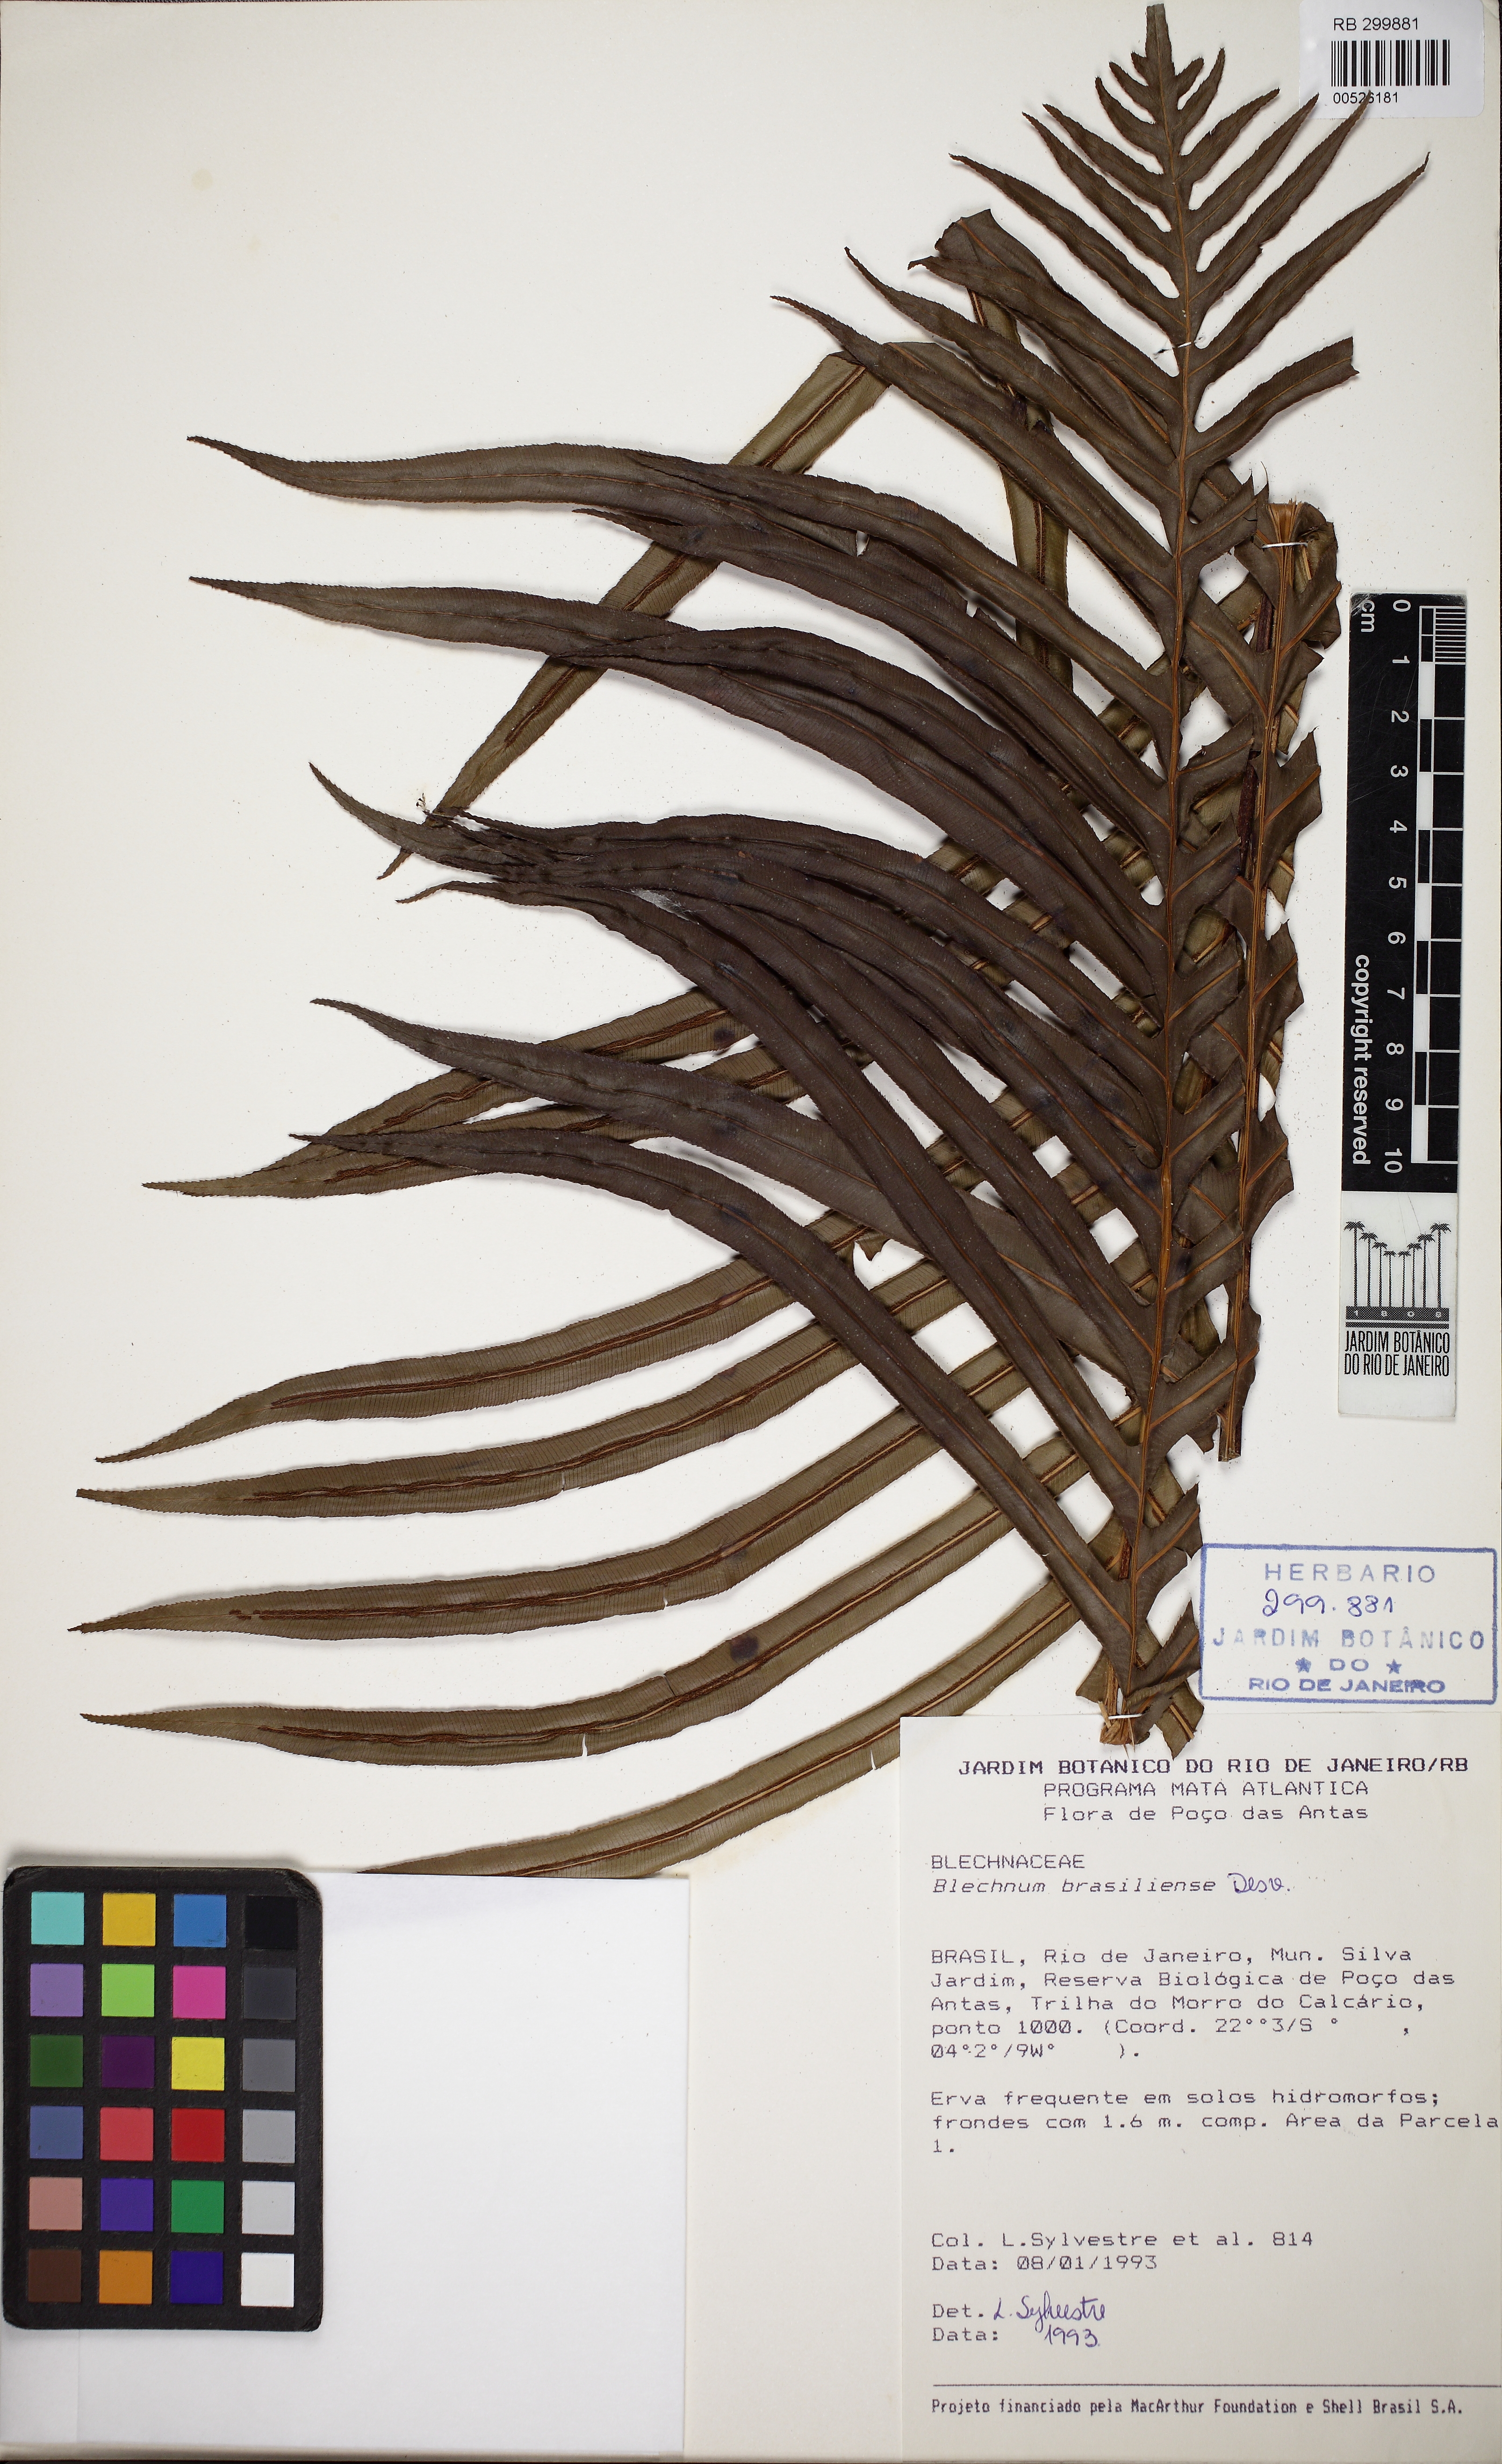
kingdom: Plantae
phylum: Tracheophyta
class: Polypodiopsida
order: Polypodiales
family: Blechnaceae
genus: Neoblechnum
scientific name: Neoblechnum brasiliense
